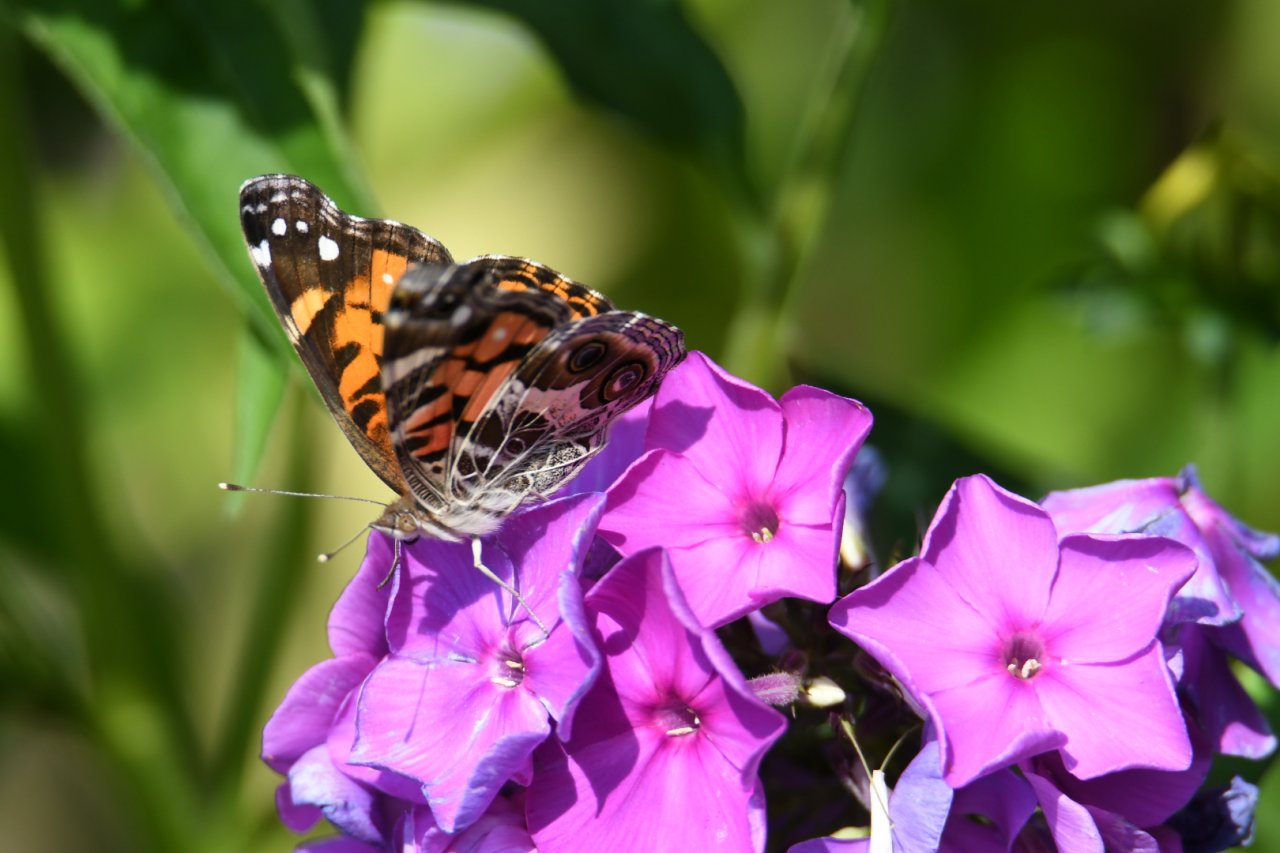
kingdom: Animalia
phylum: Arthropoda
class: Insecta
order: Lepidoptera
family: Nymphalidae
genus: Vanessa
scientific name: Vanessa virginiensis
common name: American Lady
